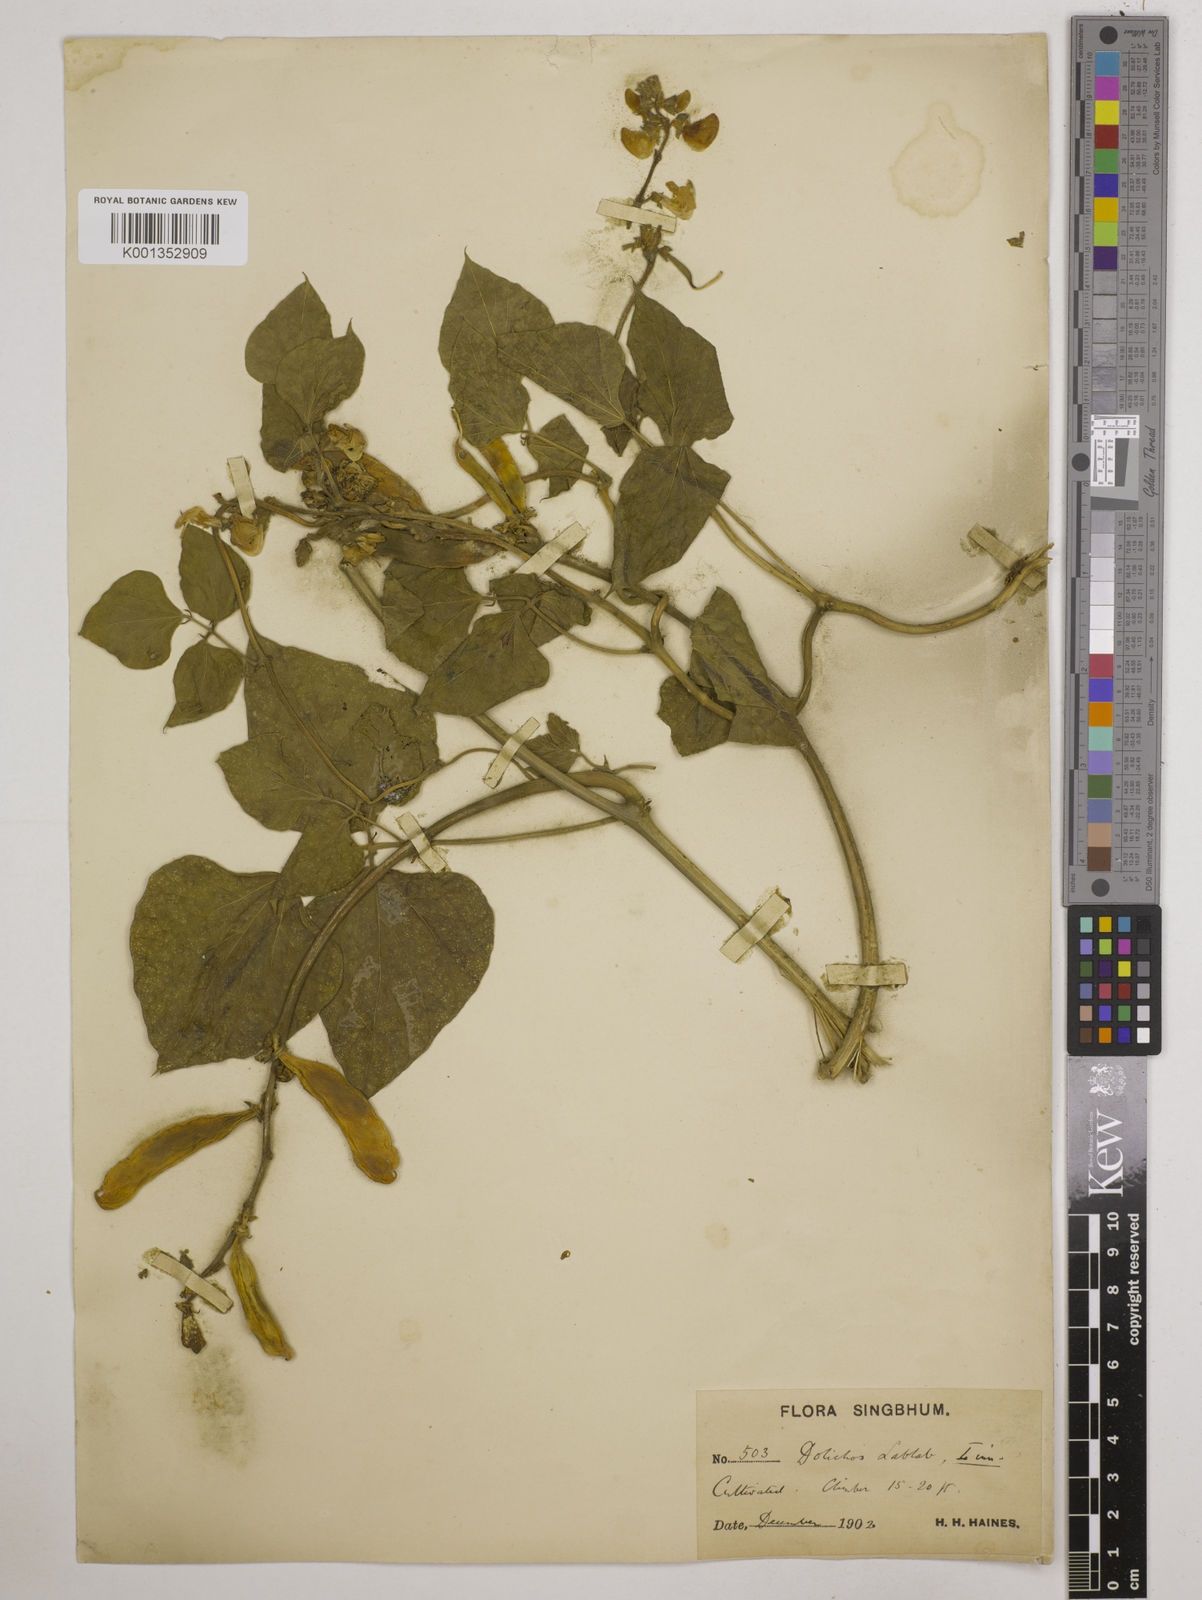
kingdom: Plantae
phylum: Tracheophyta
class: Magnoliopsida
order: Fabales
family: Fabaceae
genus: Lablab
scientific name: Lablab purpureus
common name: Lablab-bean
